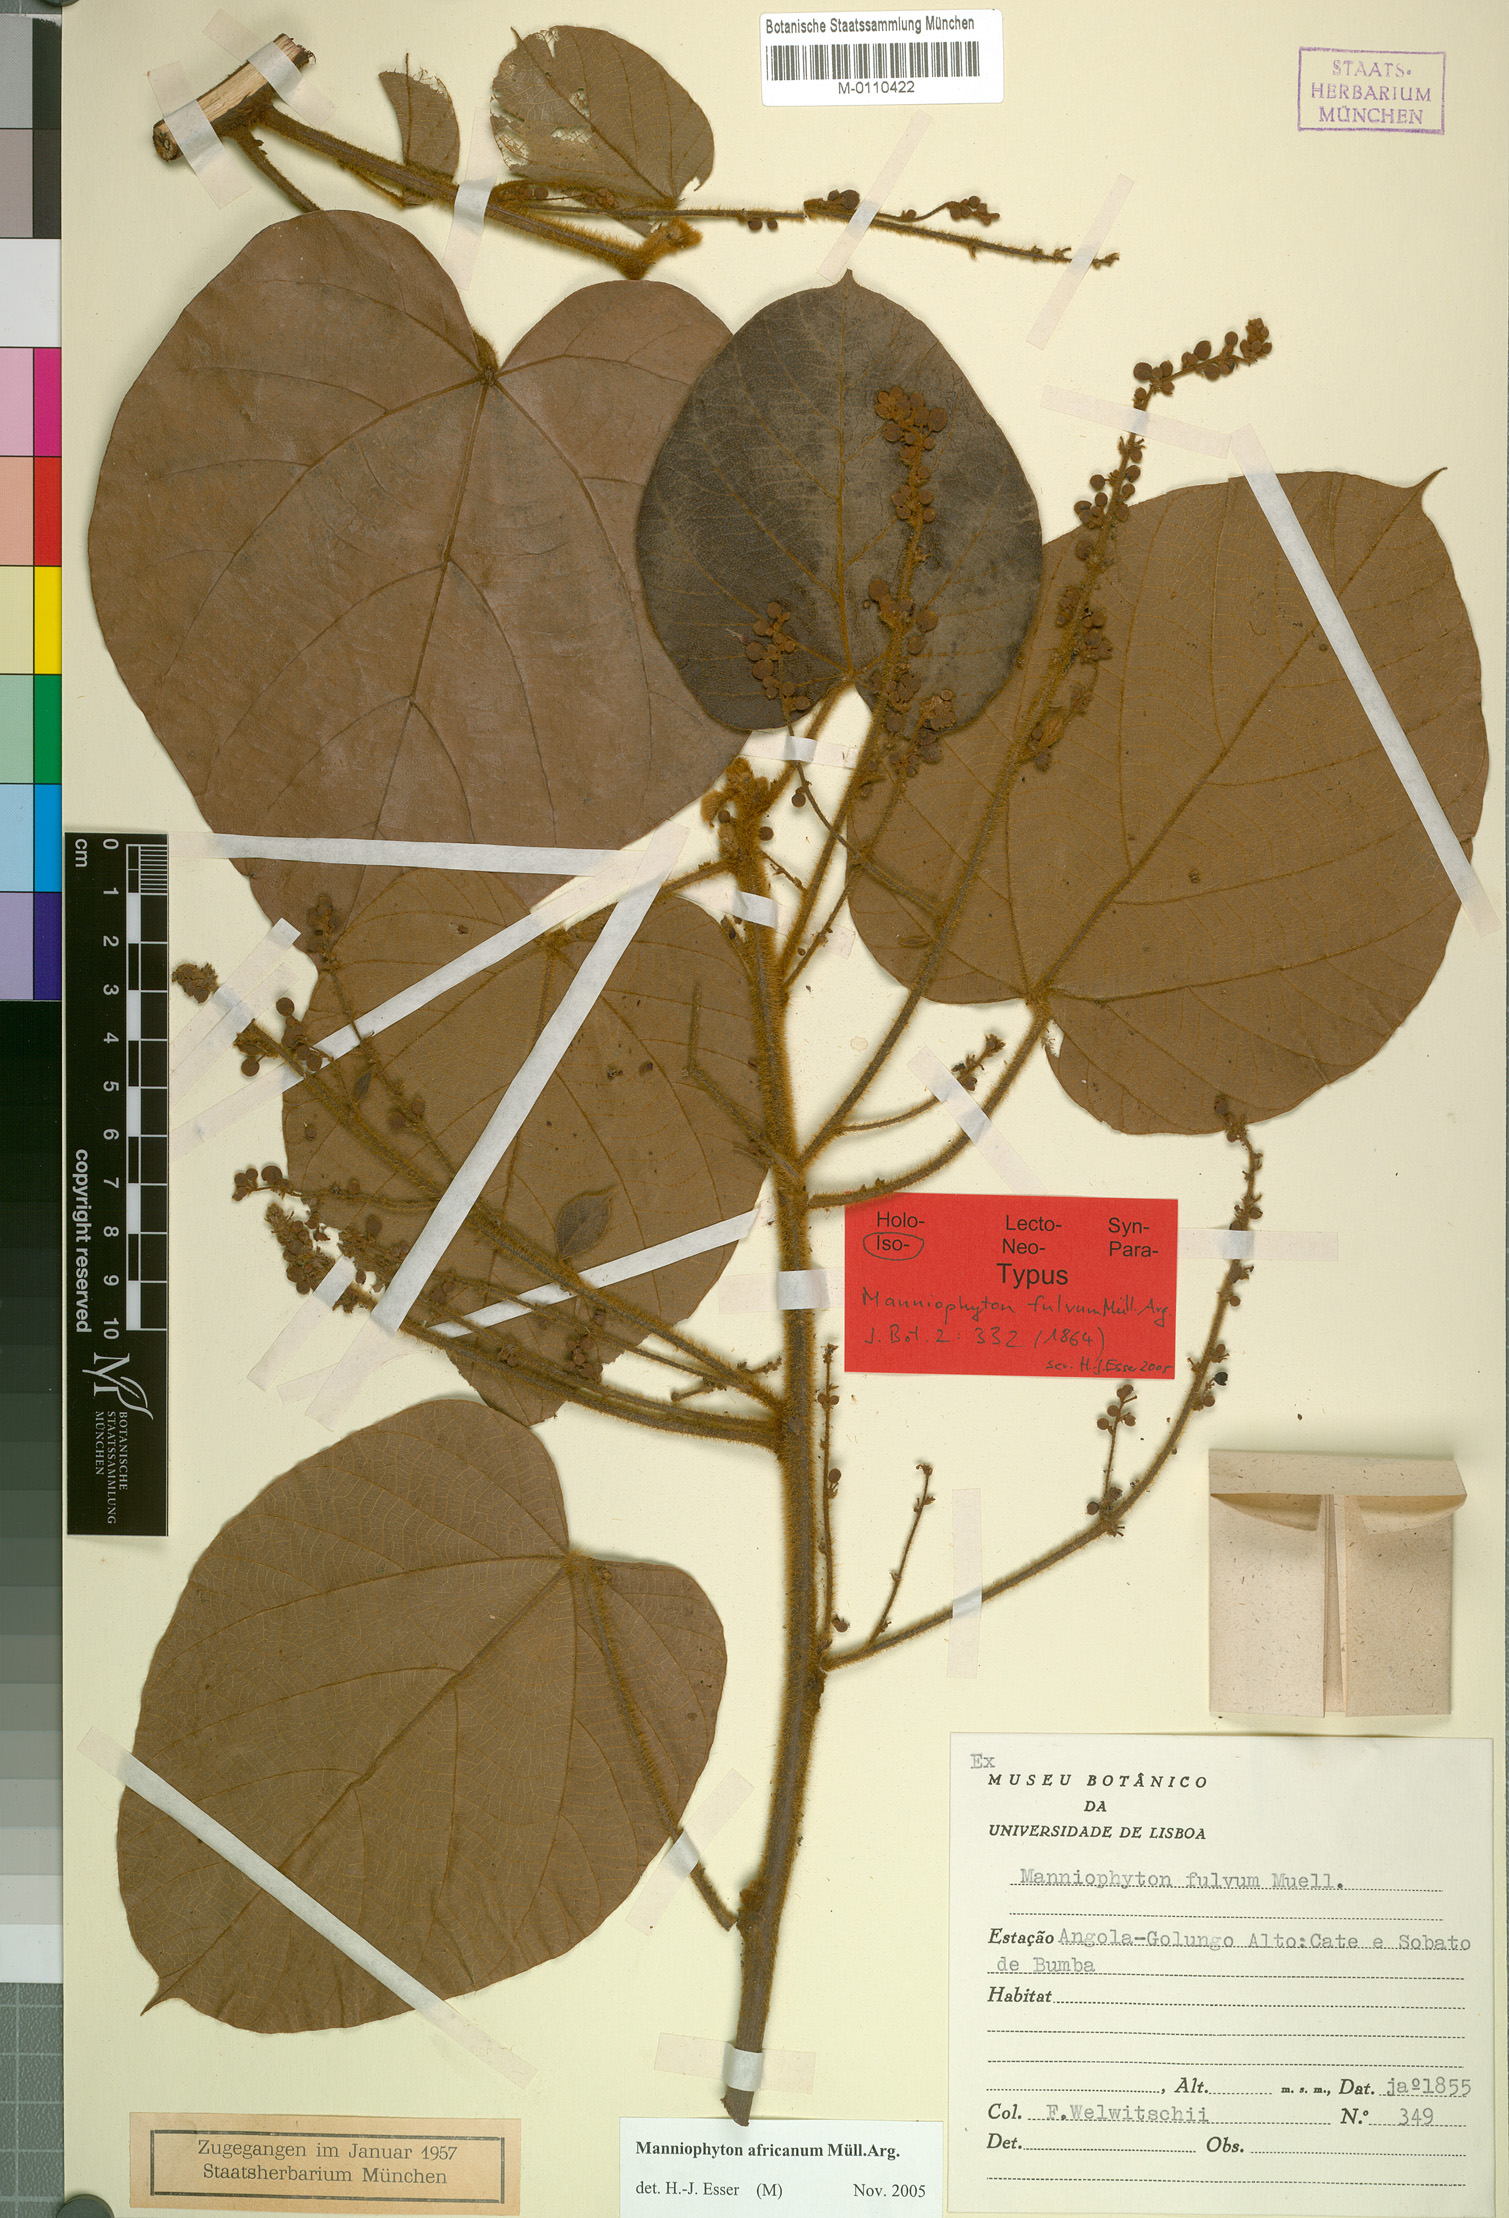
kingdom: Plantae
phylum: Tracheophyta
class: Magnoliopsida
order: Malpighiales
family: Euphorbiaceae
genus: Manniophyton
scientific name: Manniophyton fulvum
